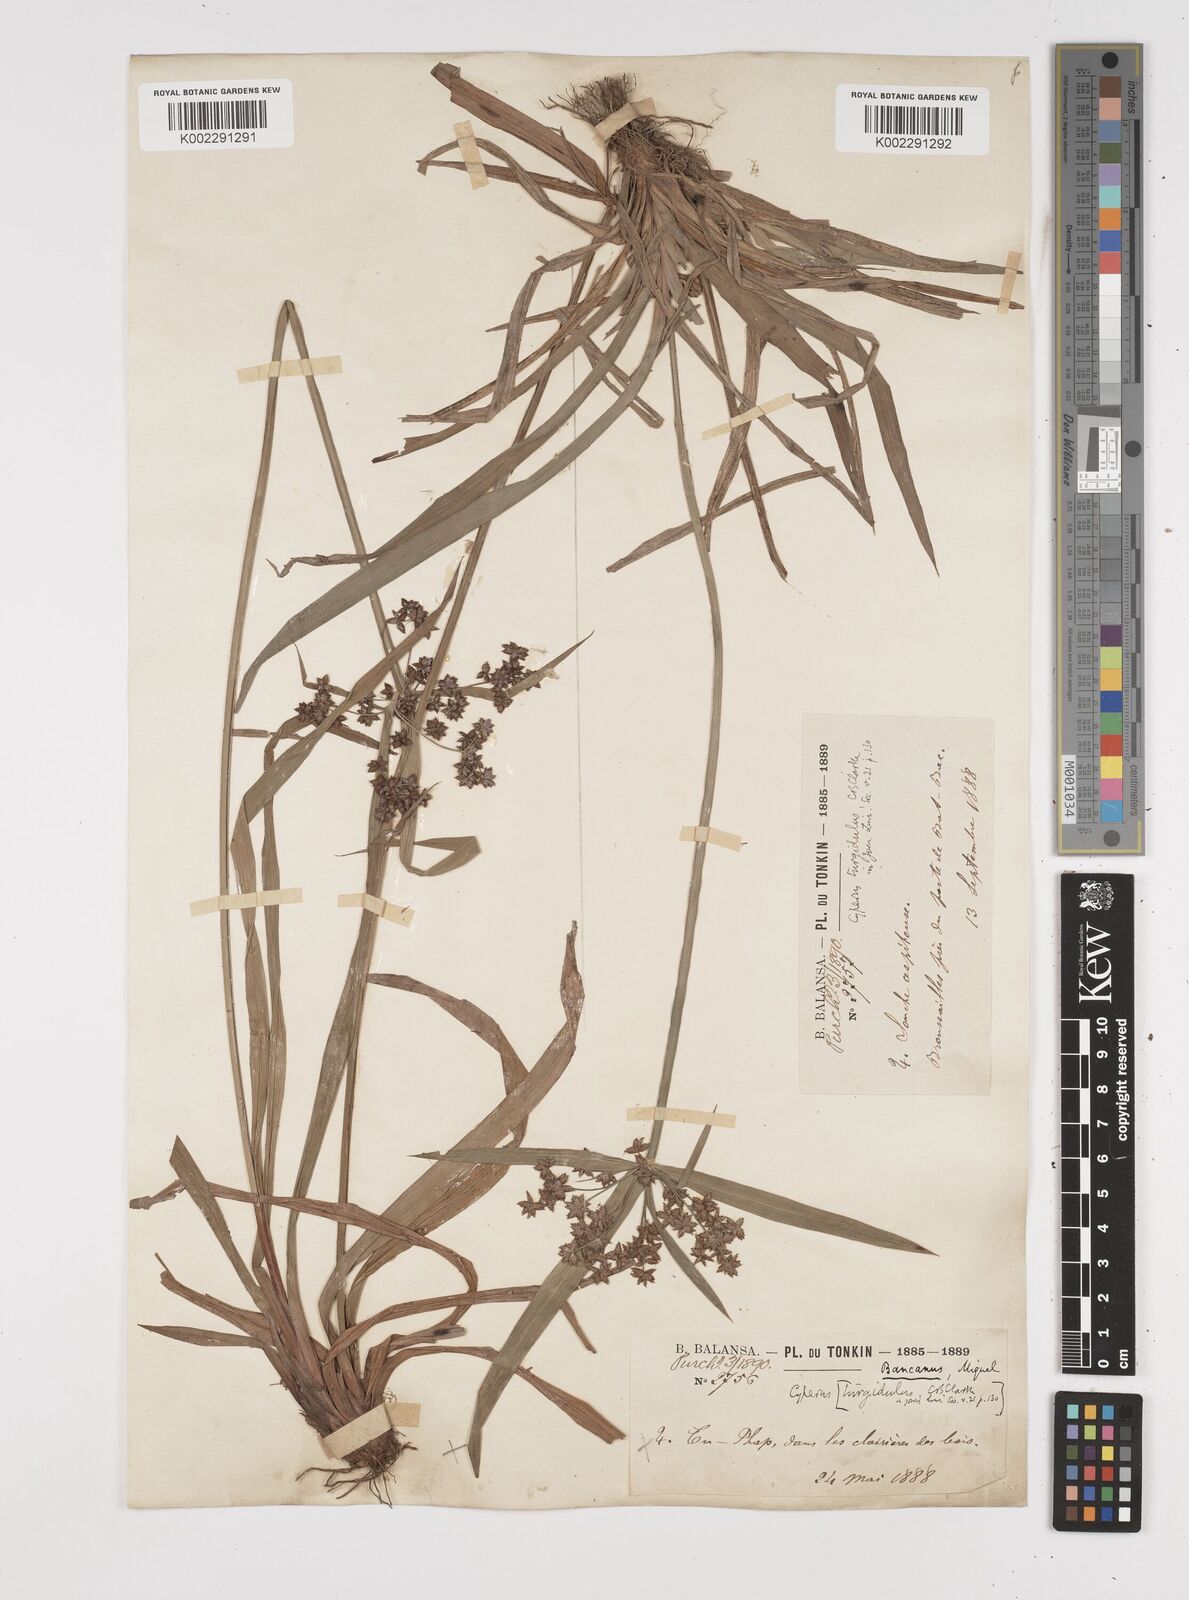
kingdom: Plantae
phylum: Tracheophyta
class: Liliopsida
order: Poales
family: Cyperaceae
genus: Cyperus
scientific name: Cyperus trialatus
